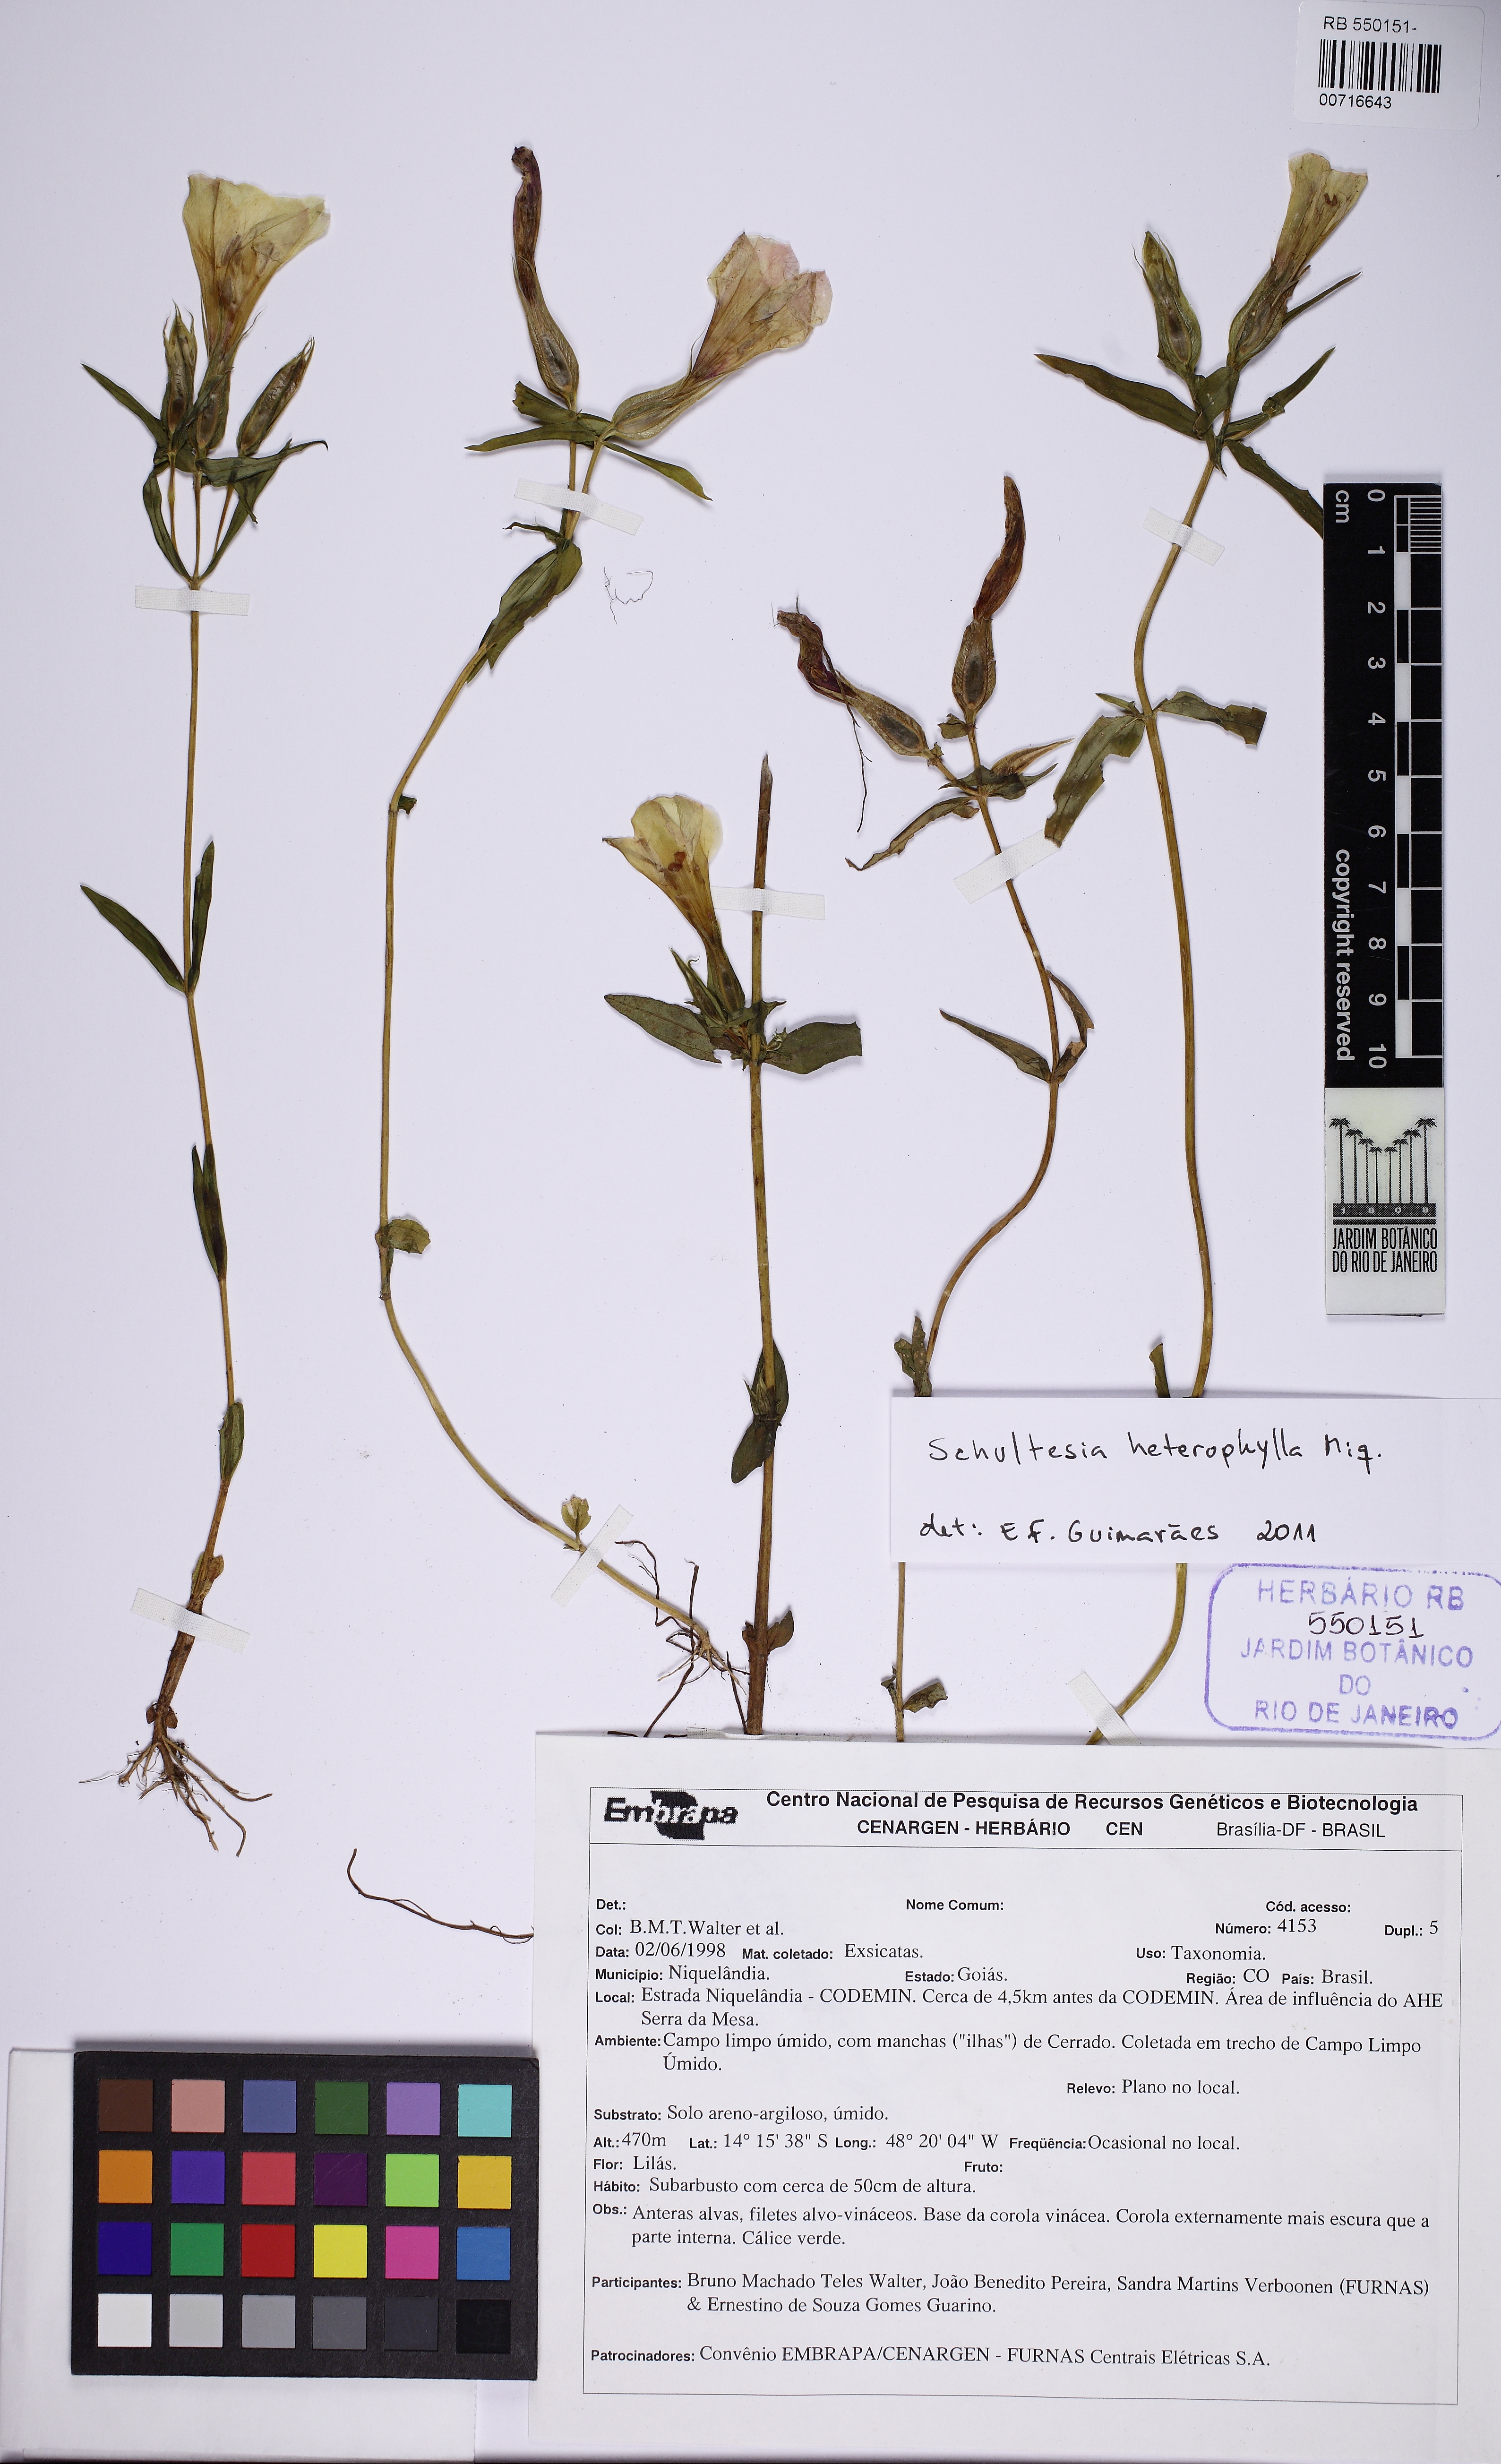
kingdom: Plantae
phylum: Tracheophyta
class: Magnoliopsida
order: Gentianales
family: Gentianaceae
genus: Schultesia
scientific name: Schultesia heterophylla
